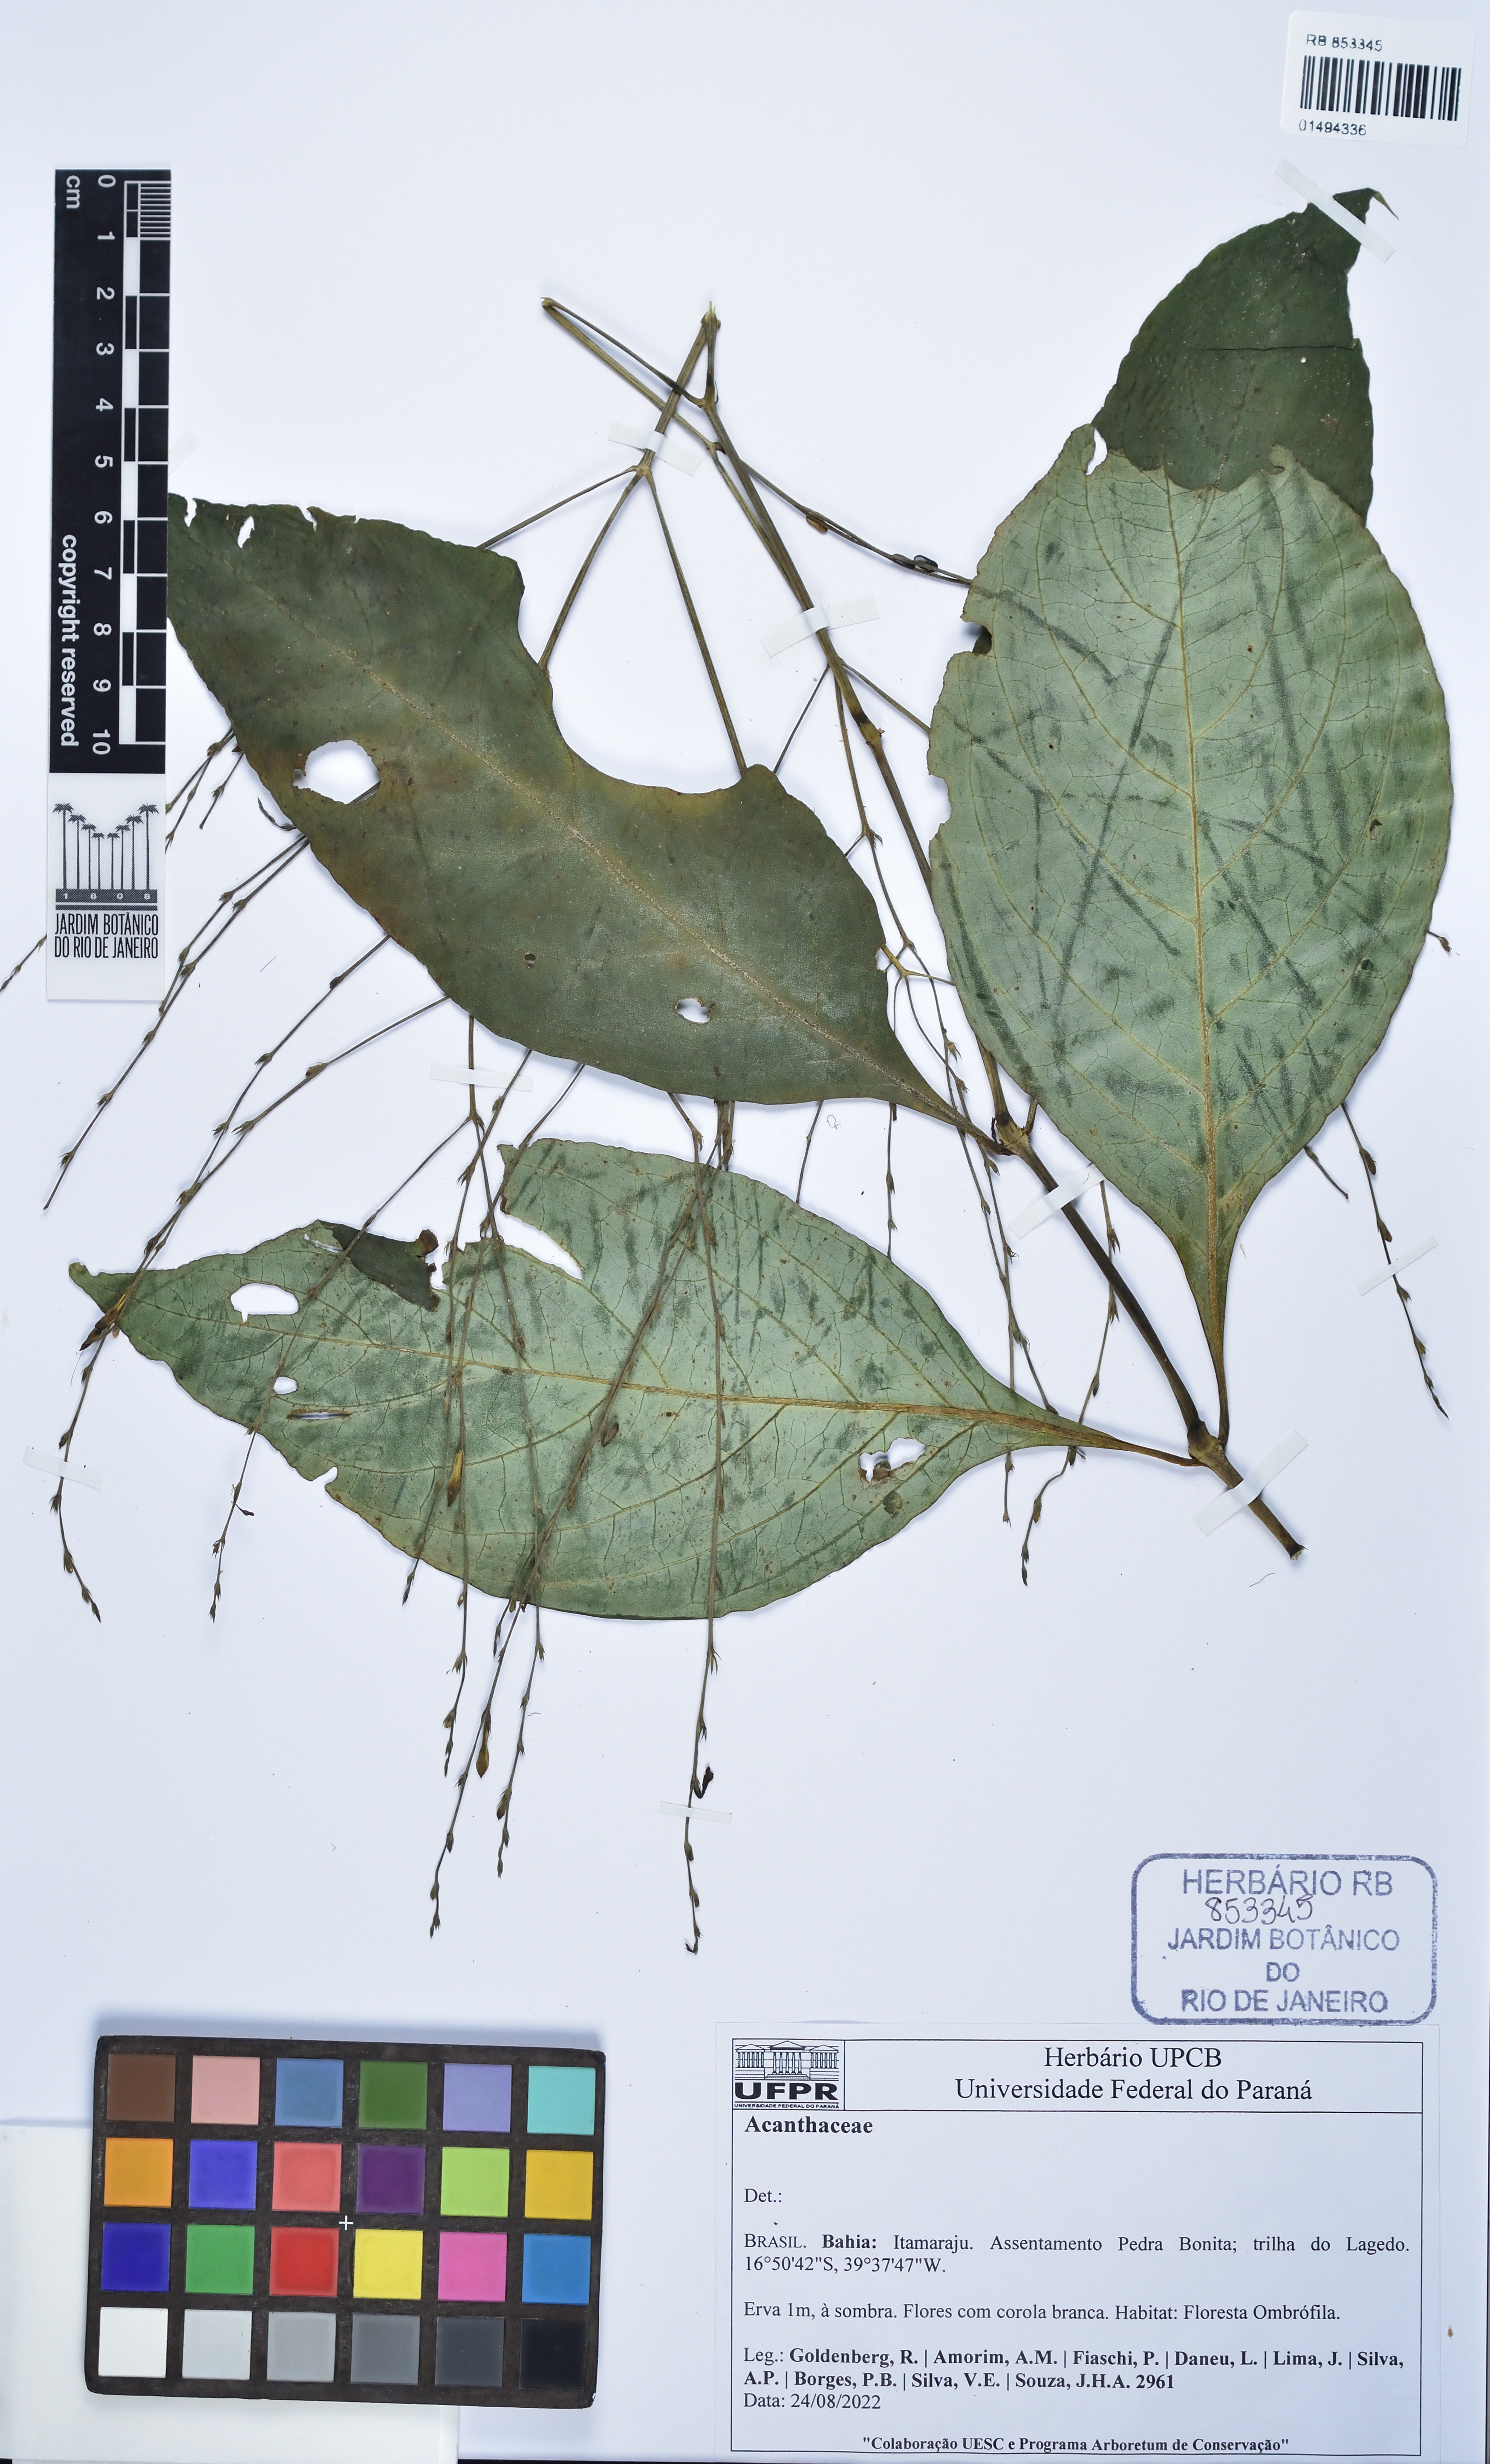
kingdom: Plantae
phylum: Tracheophyta
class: Magnoliopsida
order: Lamiales
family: Acanthaceae
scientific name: Acanthaceae
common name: Acanthaceae
